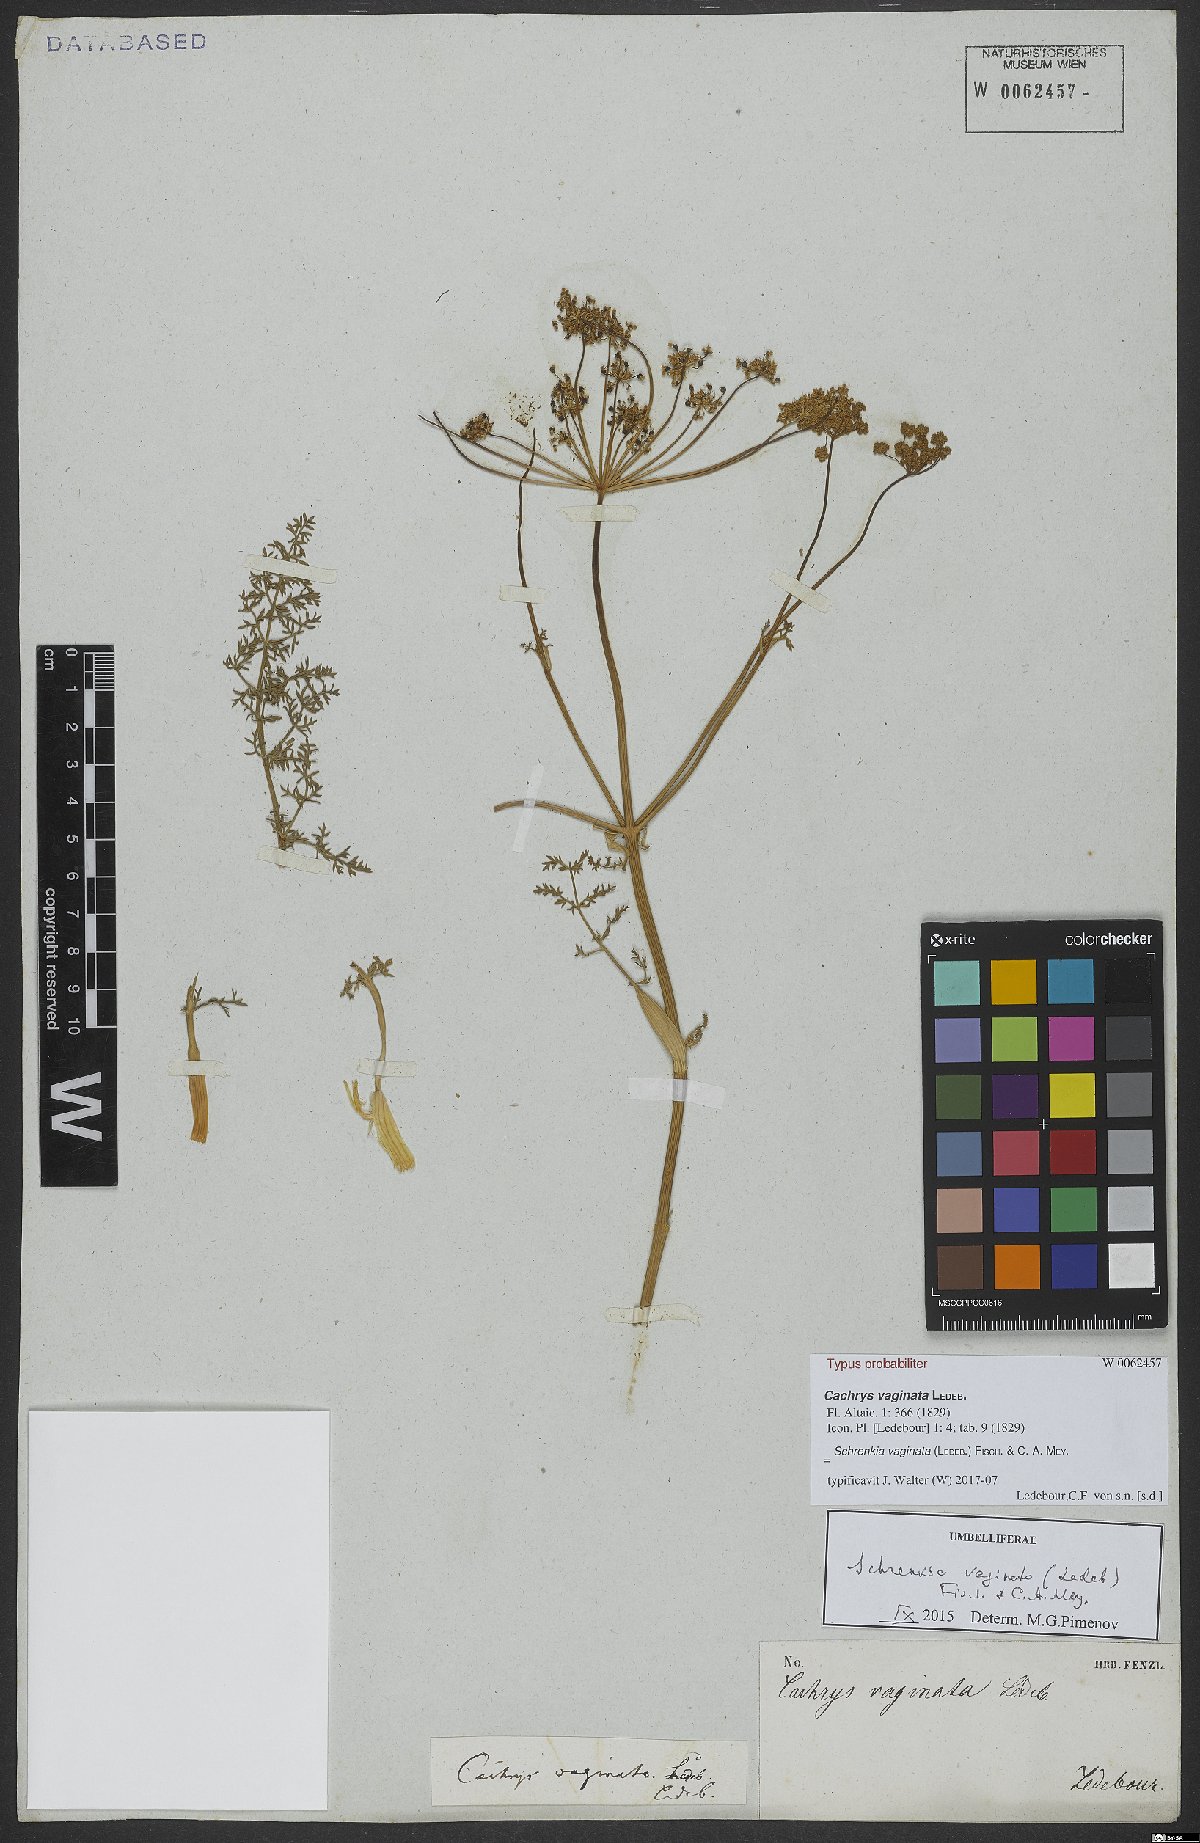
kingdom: Plantae
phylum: Tracheophyta
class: Magnoliopsida
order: Apiales
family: Apiaceae
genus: Schrenkia
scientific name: Schrenkia vaginata
